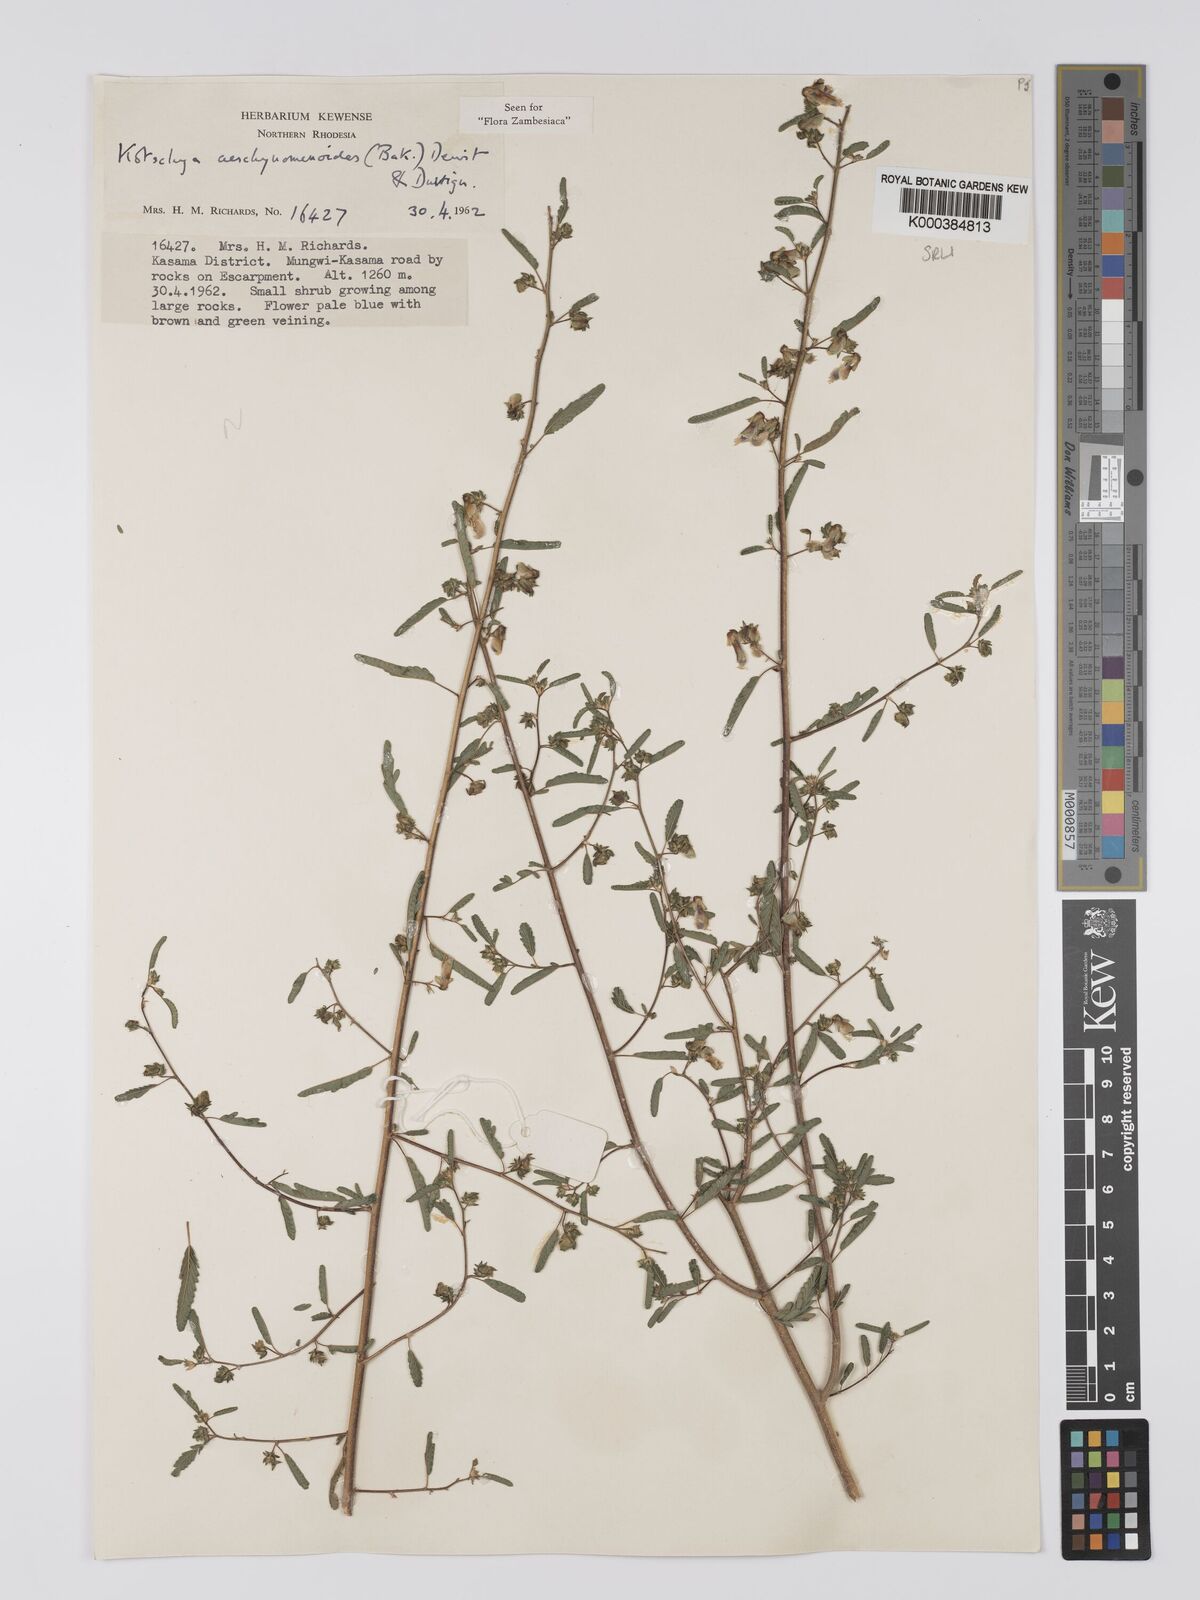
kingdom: Plantae
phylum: Tracheophyta
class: Magnoliopsida
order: Fabales
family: Fabaceae
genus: Kotschya
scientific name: Kotschya aeschynomenoides
